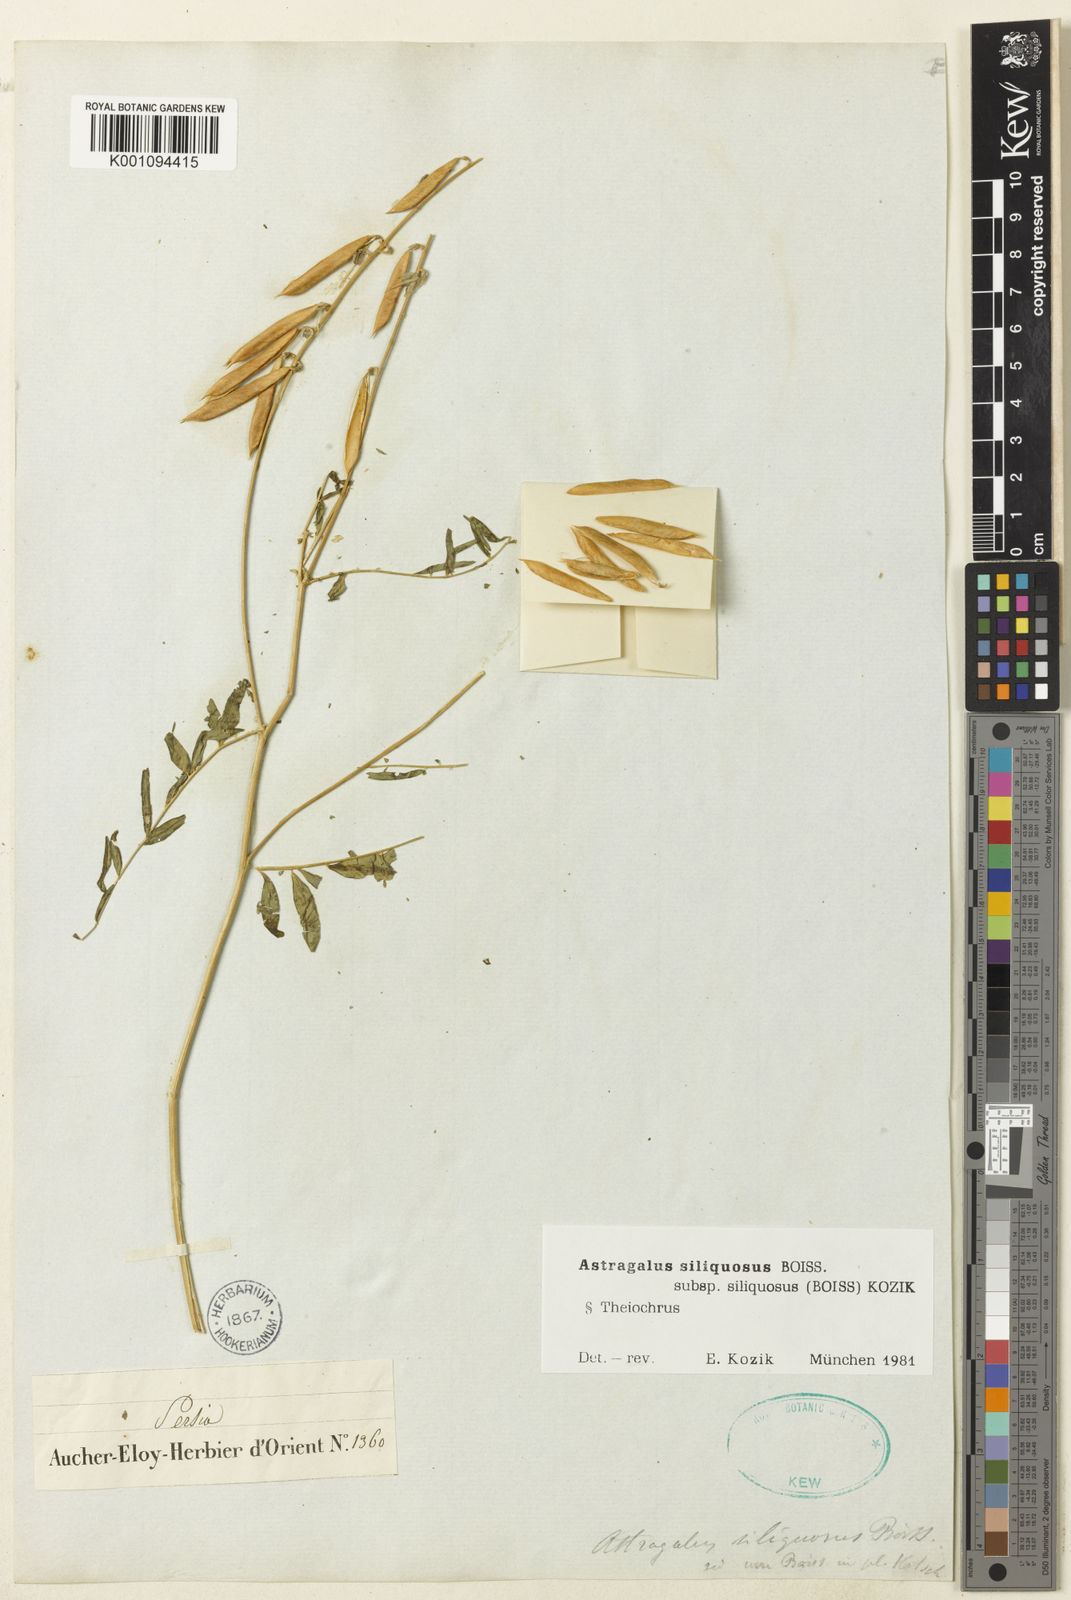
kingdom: Plantae
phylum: Tracheophyta
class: Magnoliopsida
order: Fabales
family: Fabaceae
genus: Astragalus
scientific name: Astragalus
